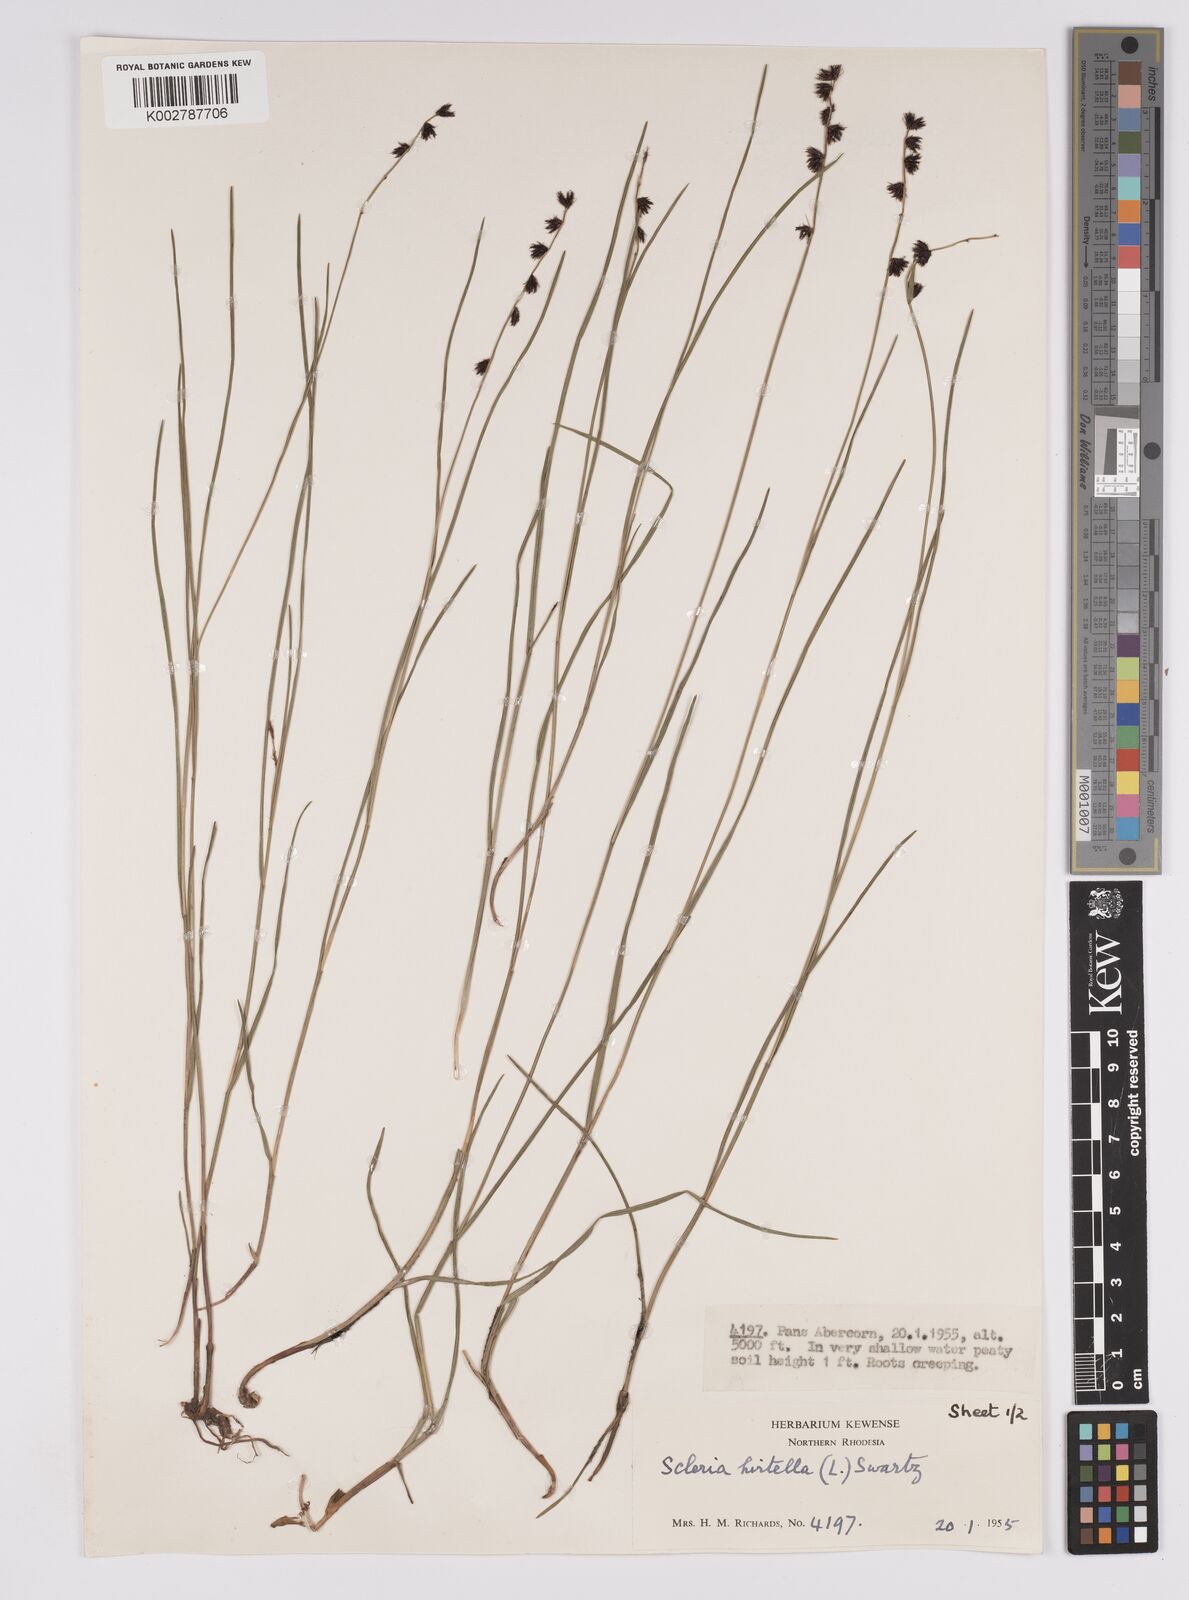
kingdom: Plantae
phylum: Tracheophyta
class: Liliopsida
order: Poales
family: Cyperaceae
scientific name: Cyperaceae
